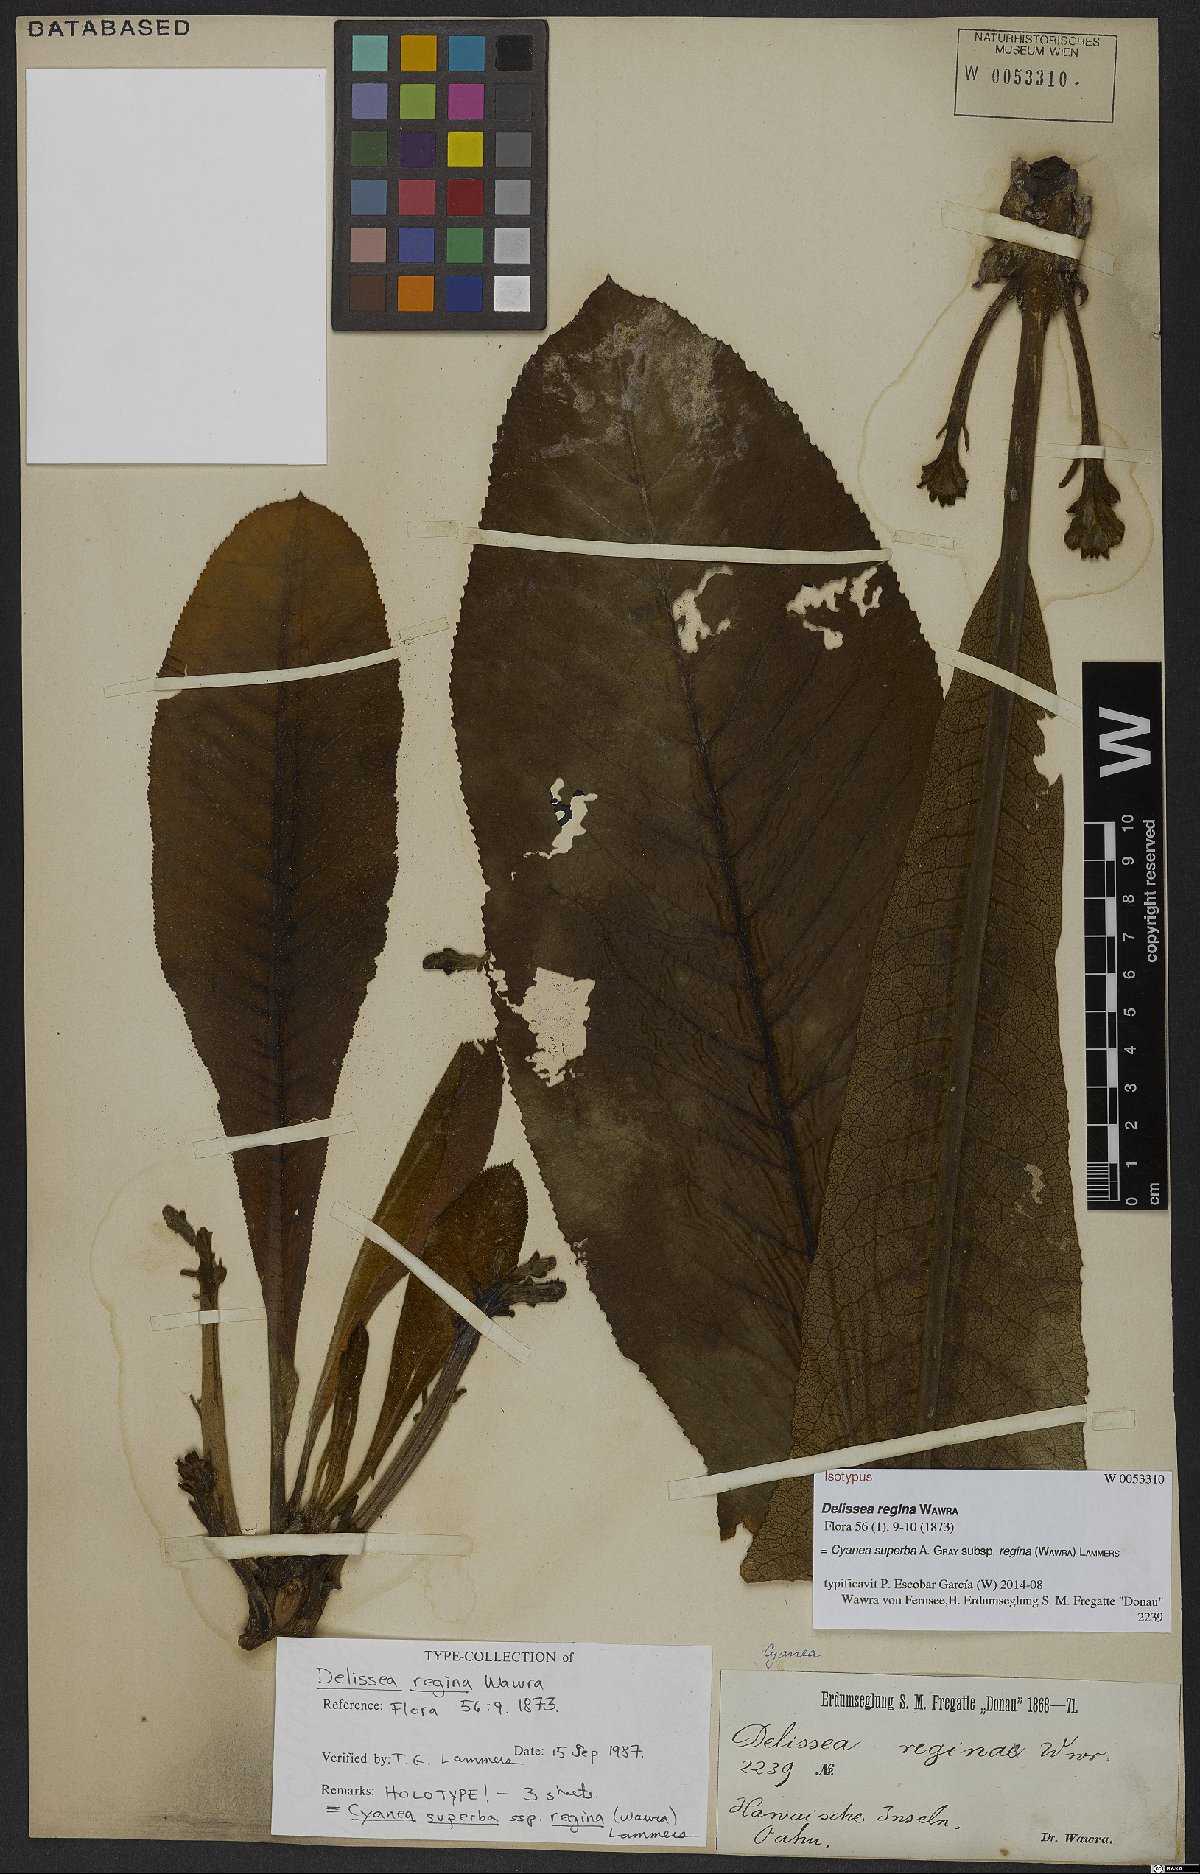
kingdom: Plantae
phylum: Tracheophyta
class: Magnoliopsida
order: Asterales
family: Campanulaceae
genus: Cyanea
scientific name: Cyanea superba
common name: Superb cyanea
